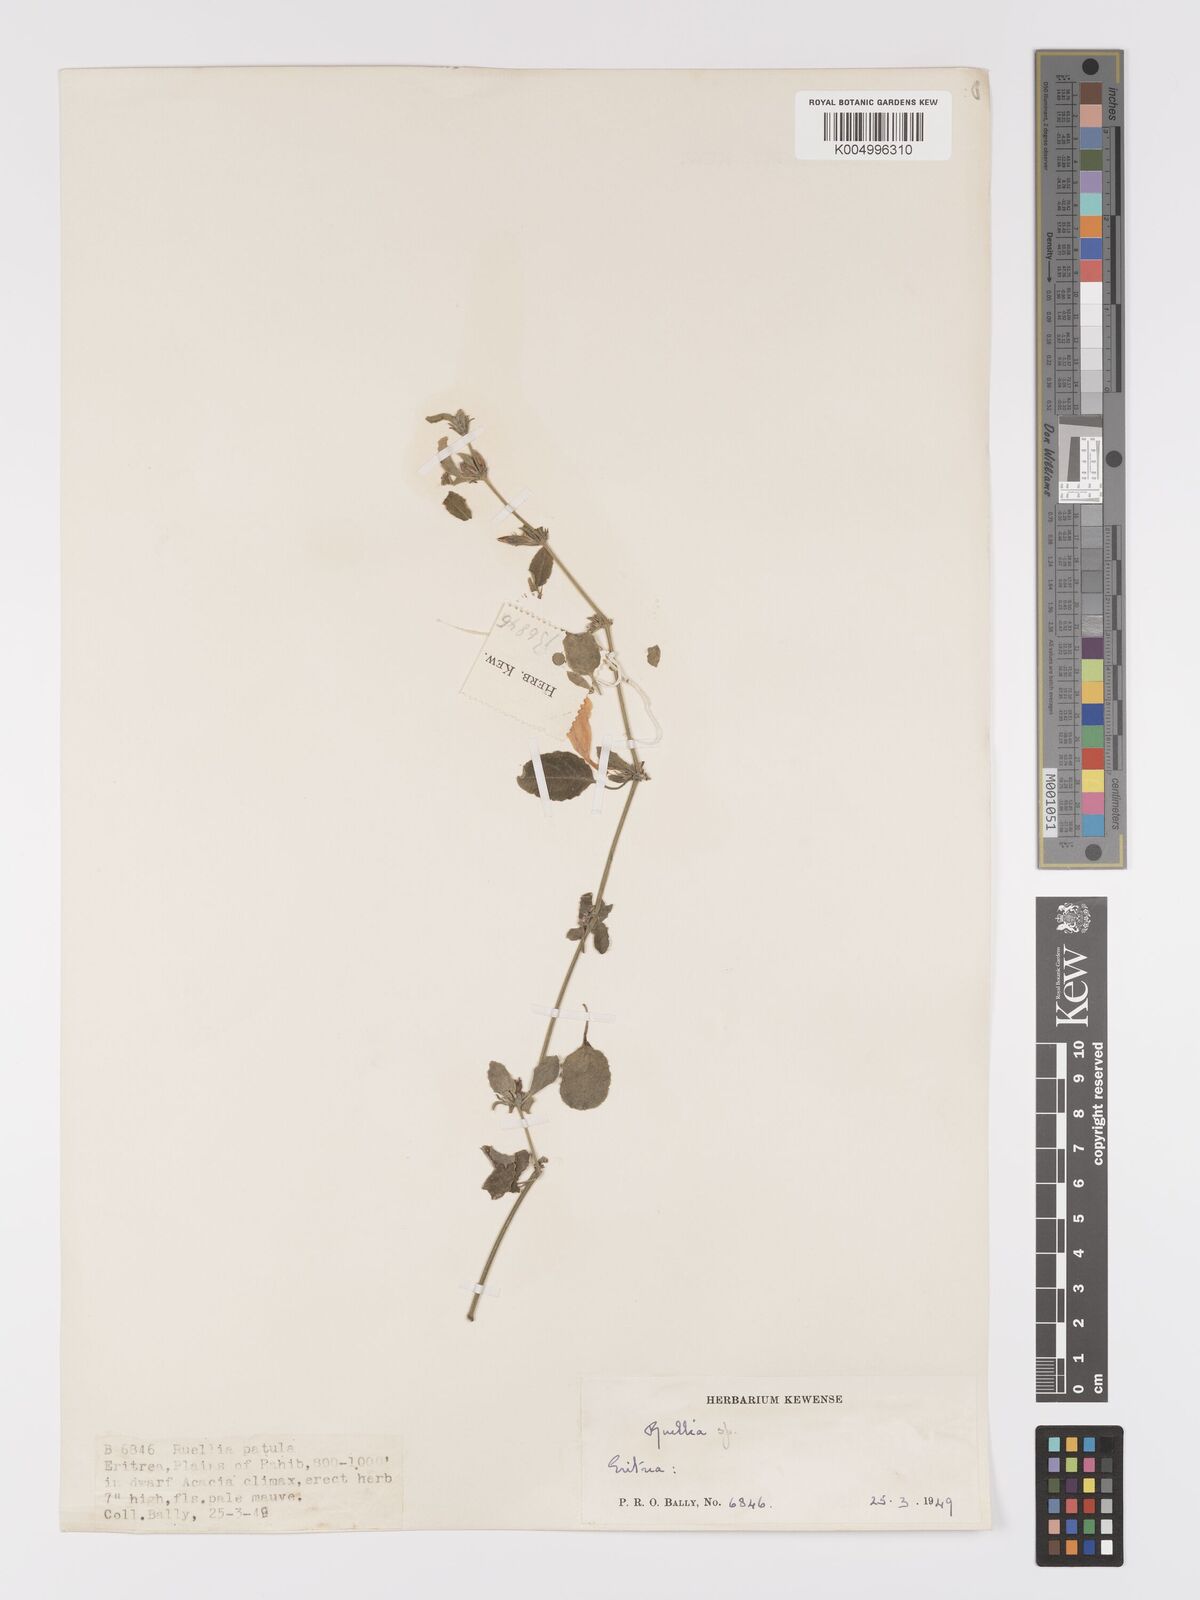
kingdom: Plantae
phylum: Tracheophyta
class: Magnoliopsida
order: Lamiales
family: Acanthaceae
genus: Ruellia
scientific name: Ruellia patula
